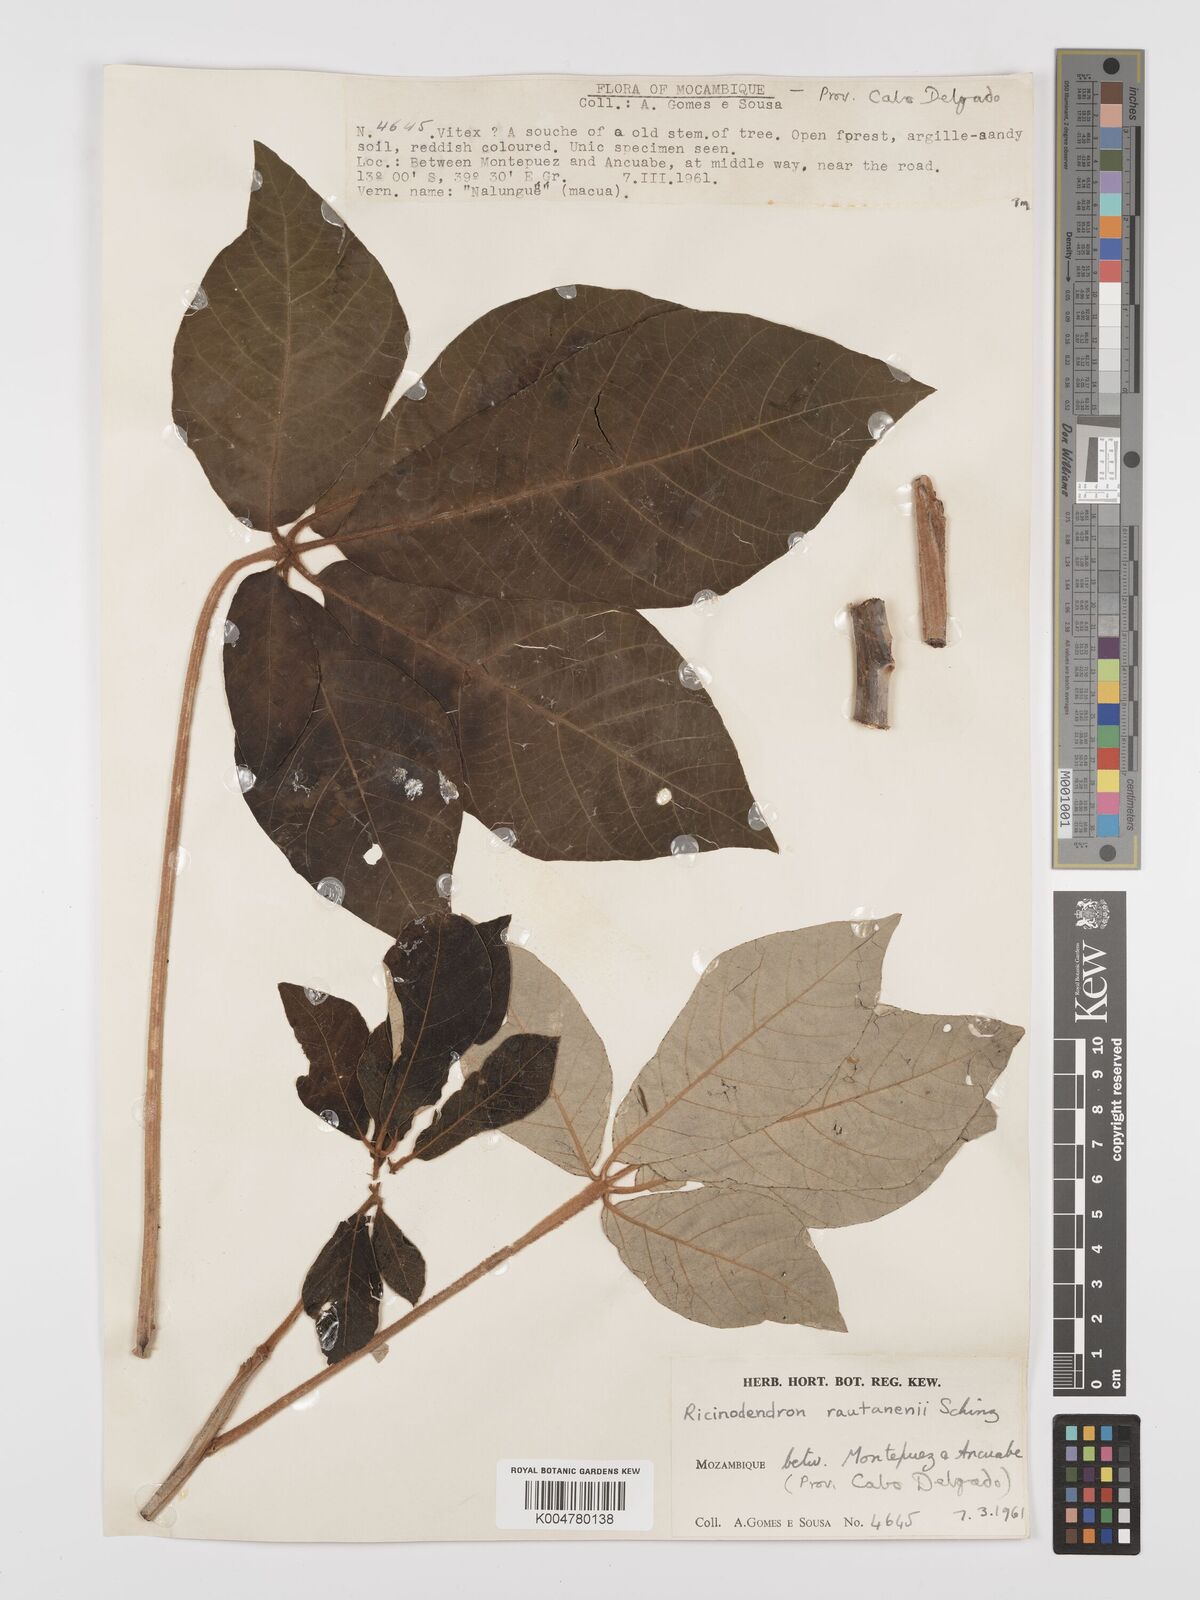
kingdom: Plantae
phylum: Tracheophyta
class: Magnoliopsida
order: Malpighiales
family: Euphorbiaceae
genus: Schinziophyton
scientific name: Schinziophyton rautanenii
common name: Manketti
